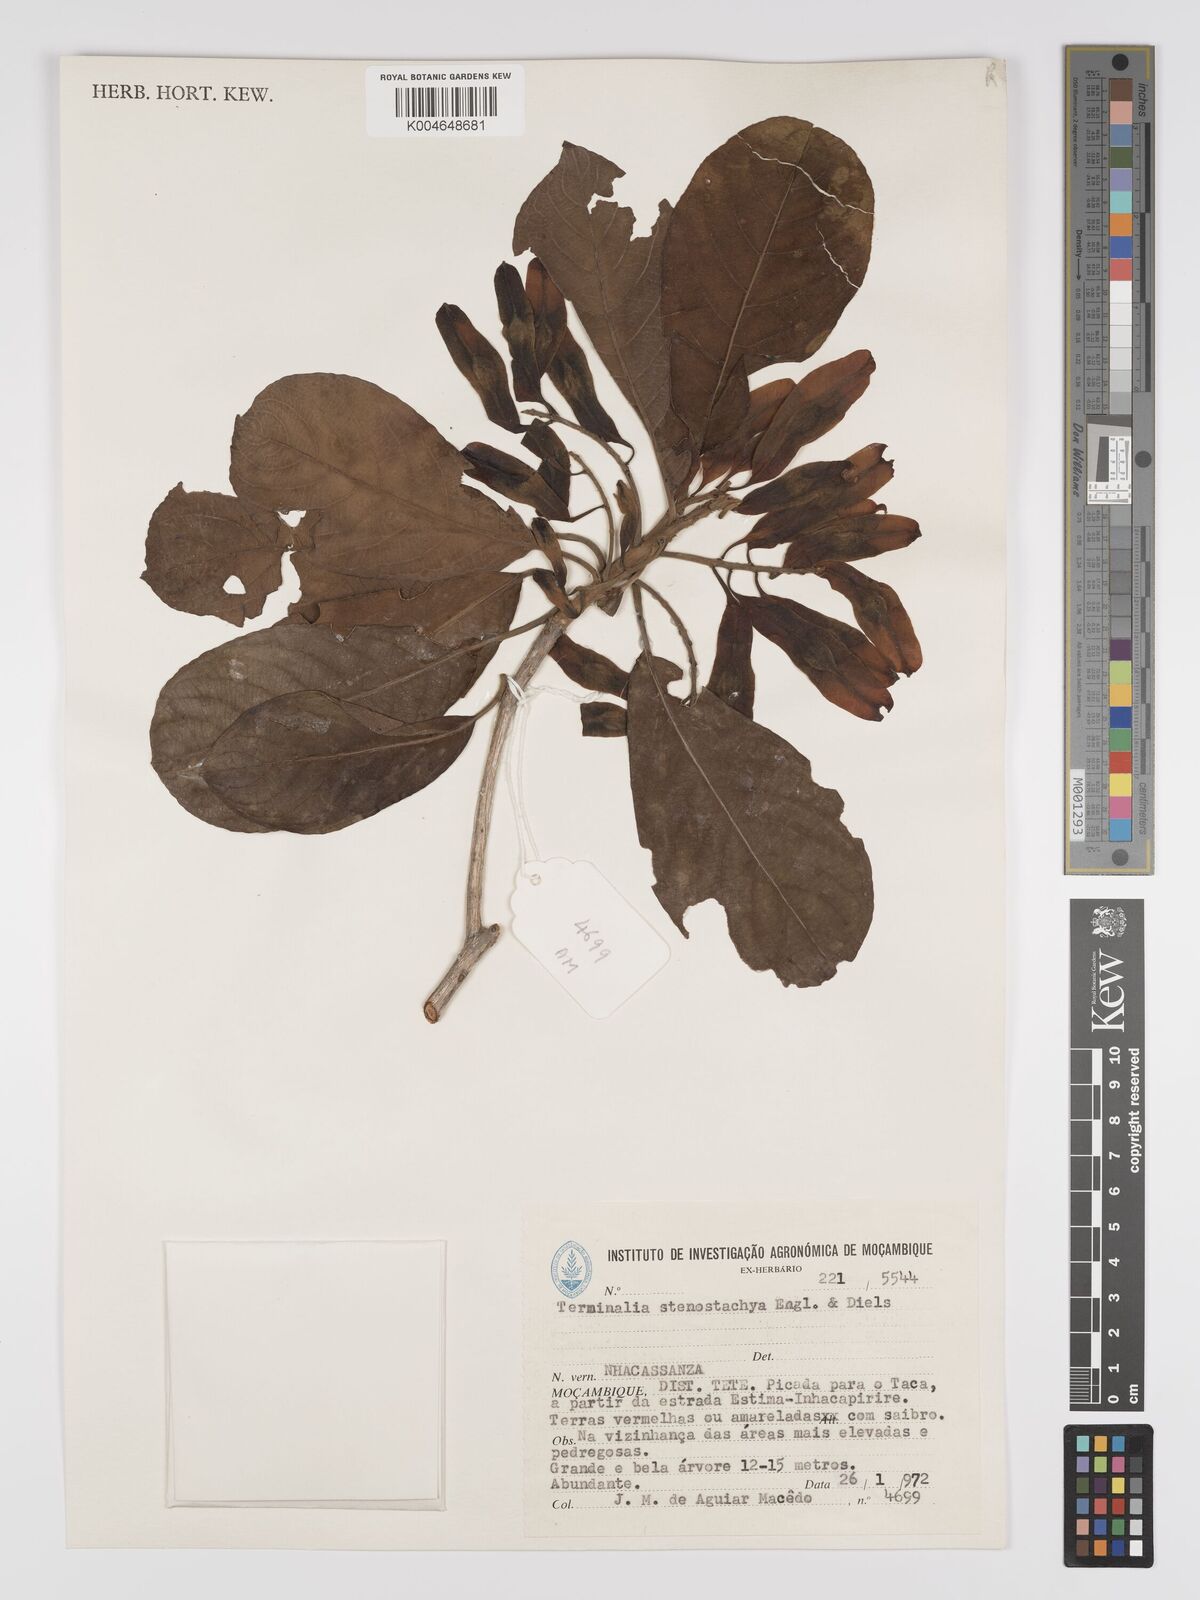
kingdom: Plantae
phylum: Tracheophyta
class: Magnoliopsida
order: Myrtales
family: Combretaceae
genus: Terminalia
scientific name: Terminalia stenostachya
